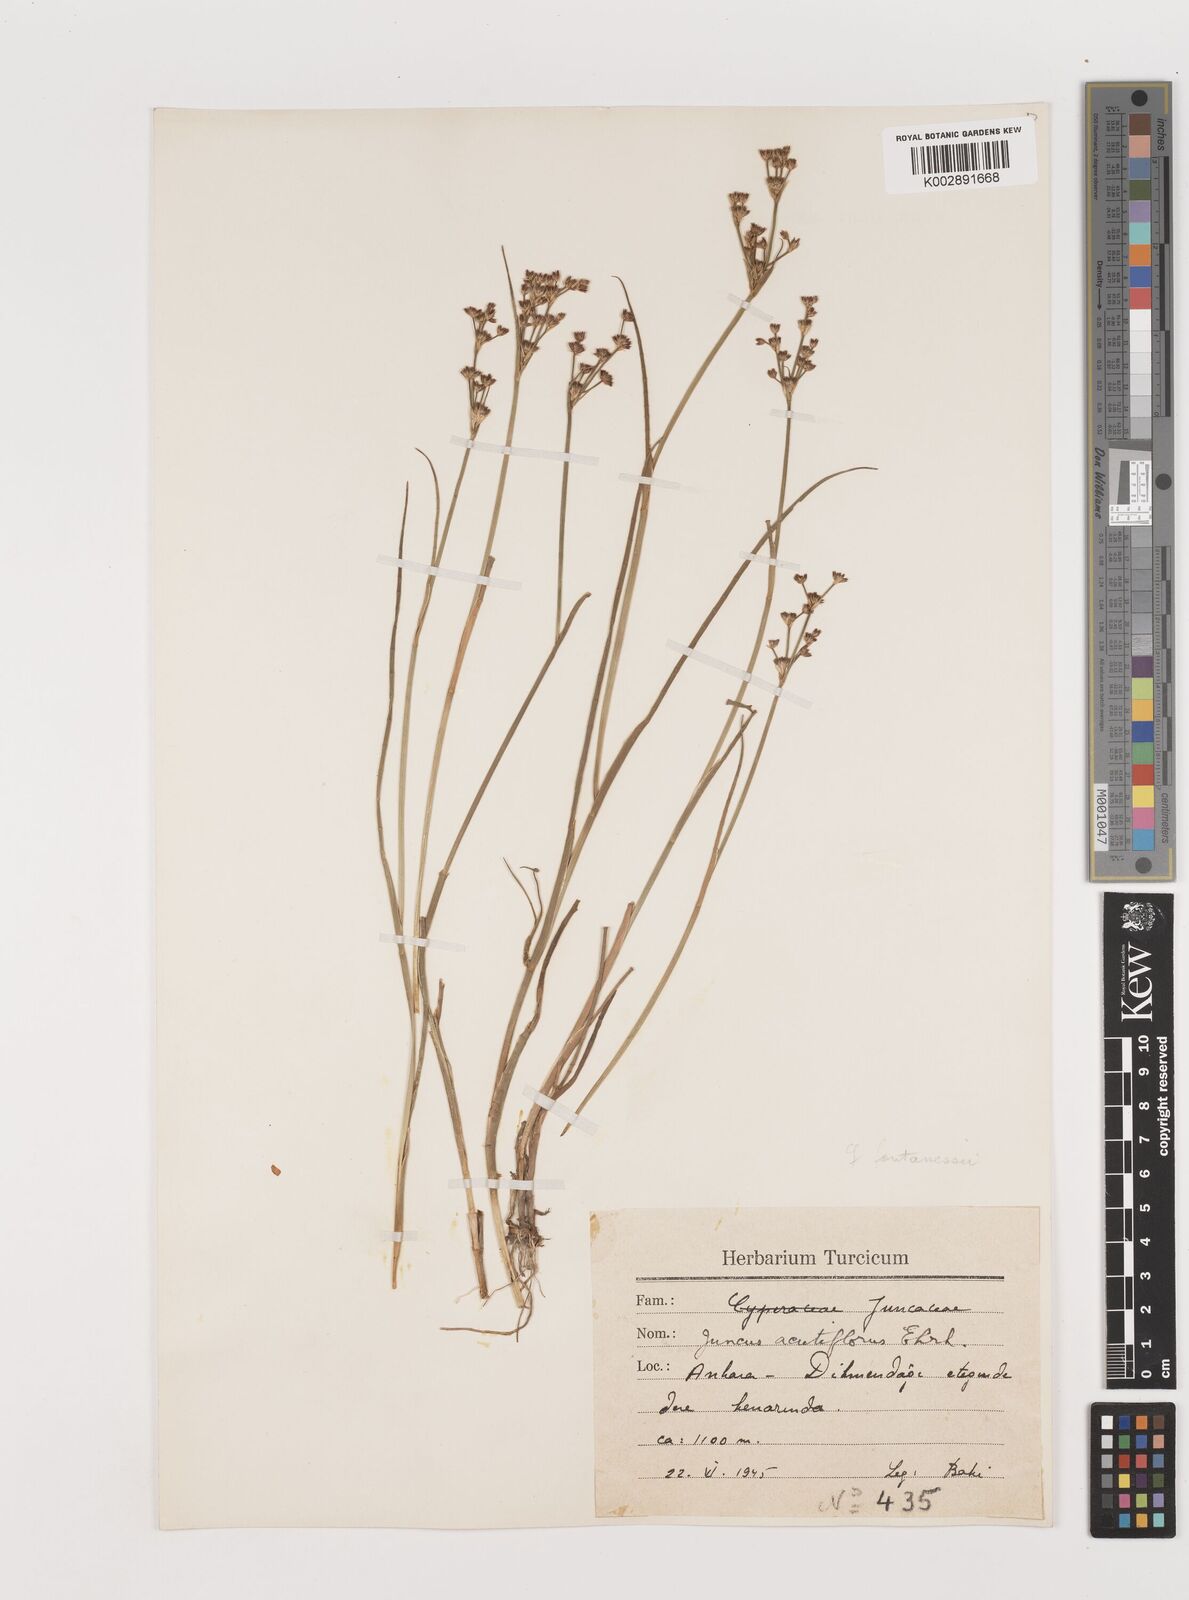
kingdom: Plantae
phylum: Tracheophyta
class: Liliopsida
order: Poales
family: Juncaceae
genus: Juncus
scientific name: Juncus acutiflorus
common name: Sharp-flowered rush
